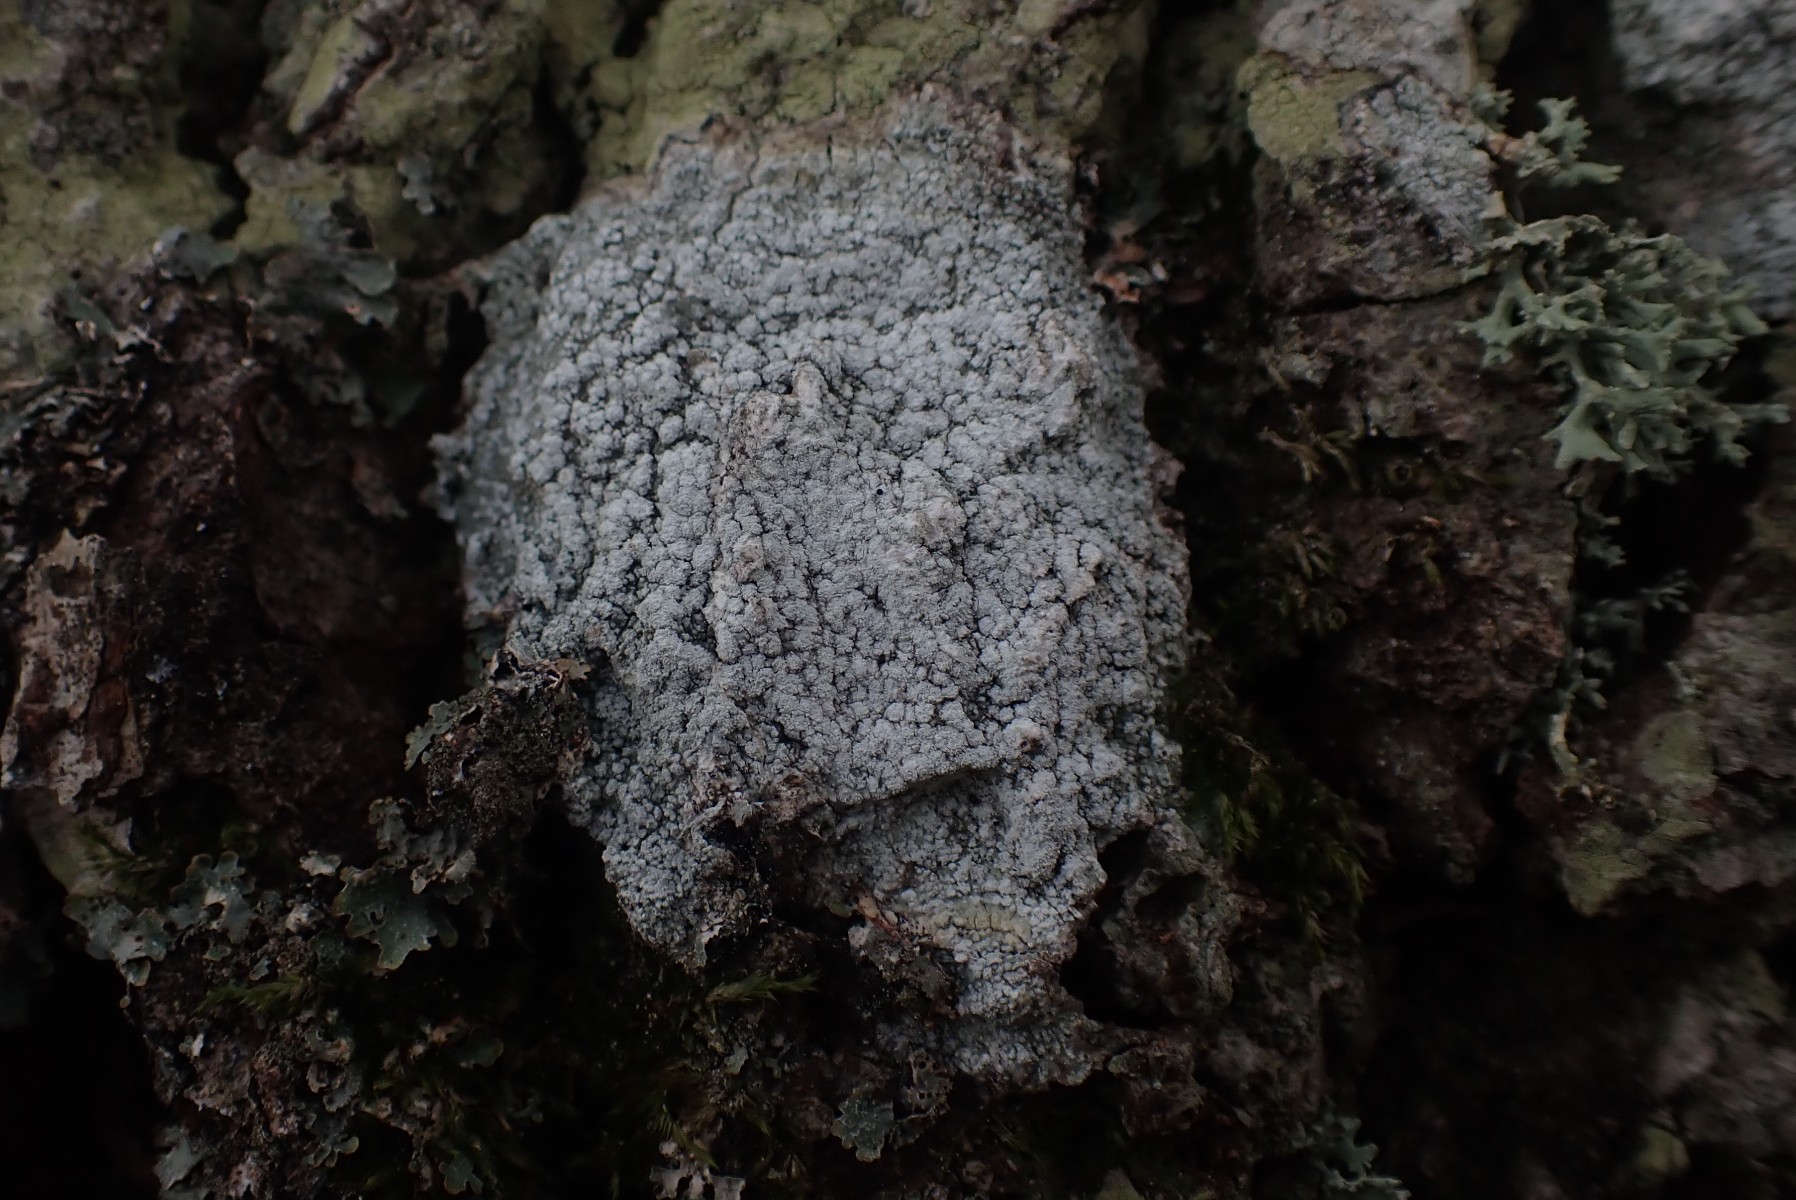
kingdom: Fungi
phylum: Ascomycota
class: Lecanoromycetes
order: Pertusariales
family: Pertusariaceae
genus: Lepra
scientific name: Lepra amara
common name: bitter prikvortelav
